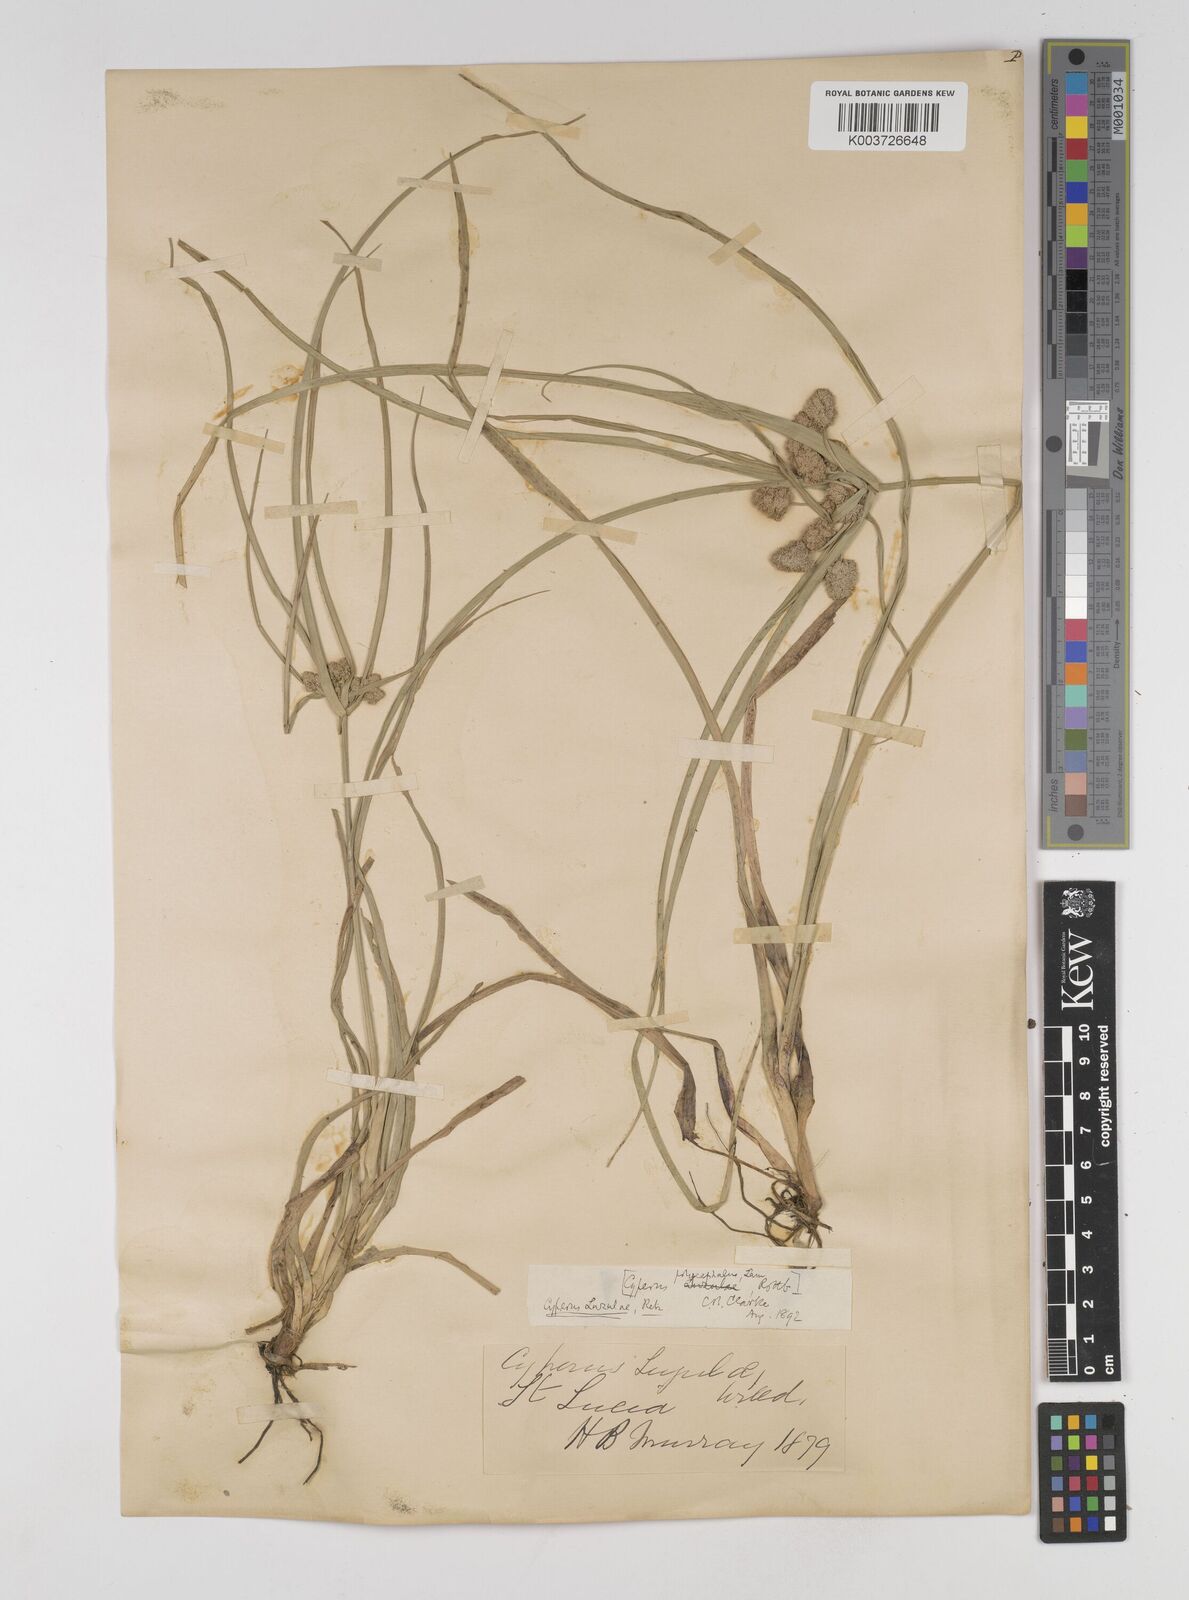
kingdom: Plantae
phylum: Tracheophyta
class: Liliopsida
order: Poales
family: Cyperaceae
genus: Cyperus
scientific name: Cyperus luzulae
